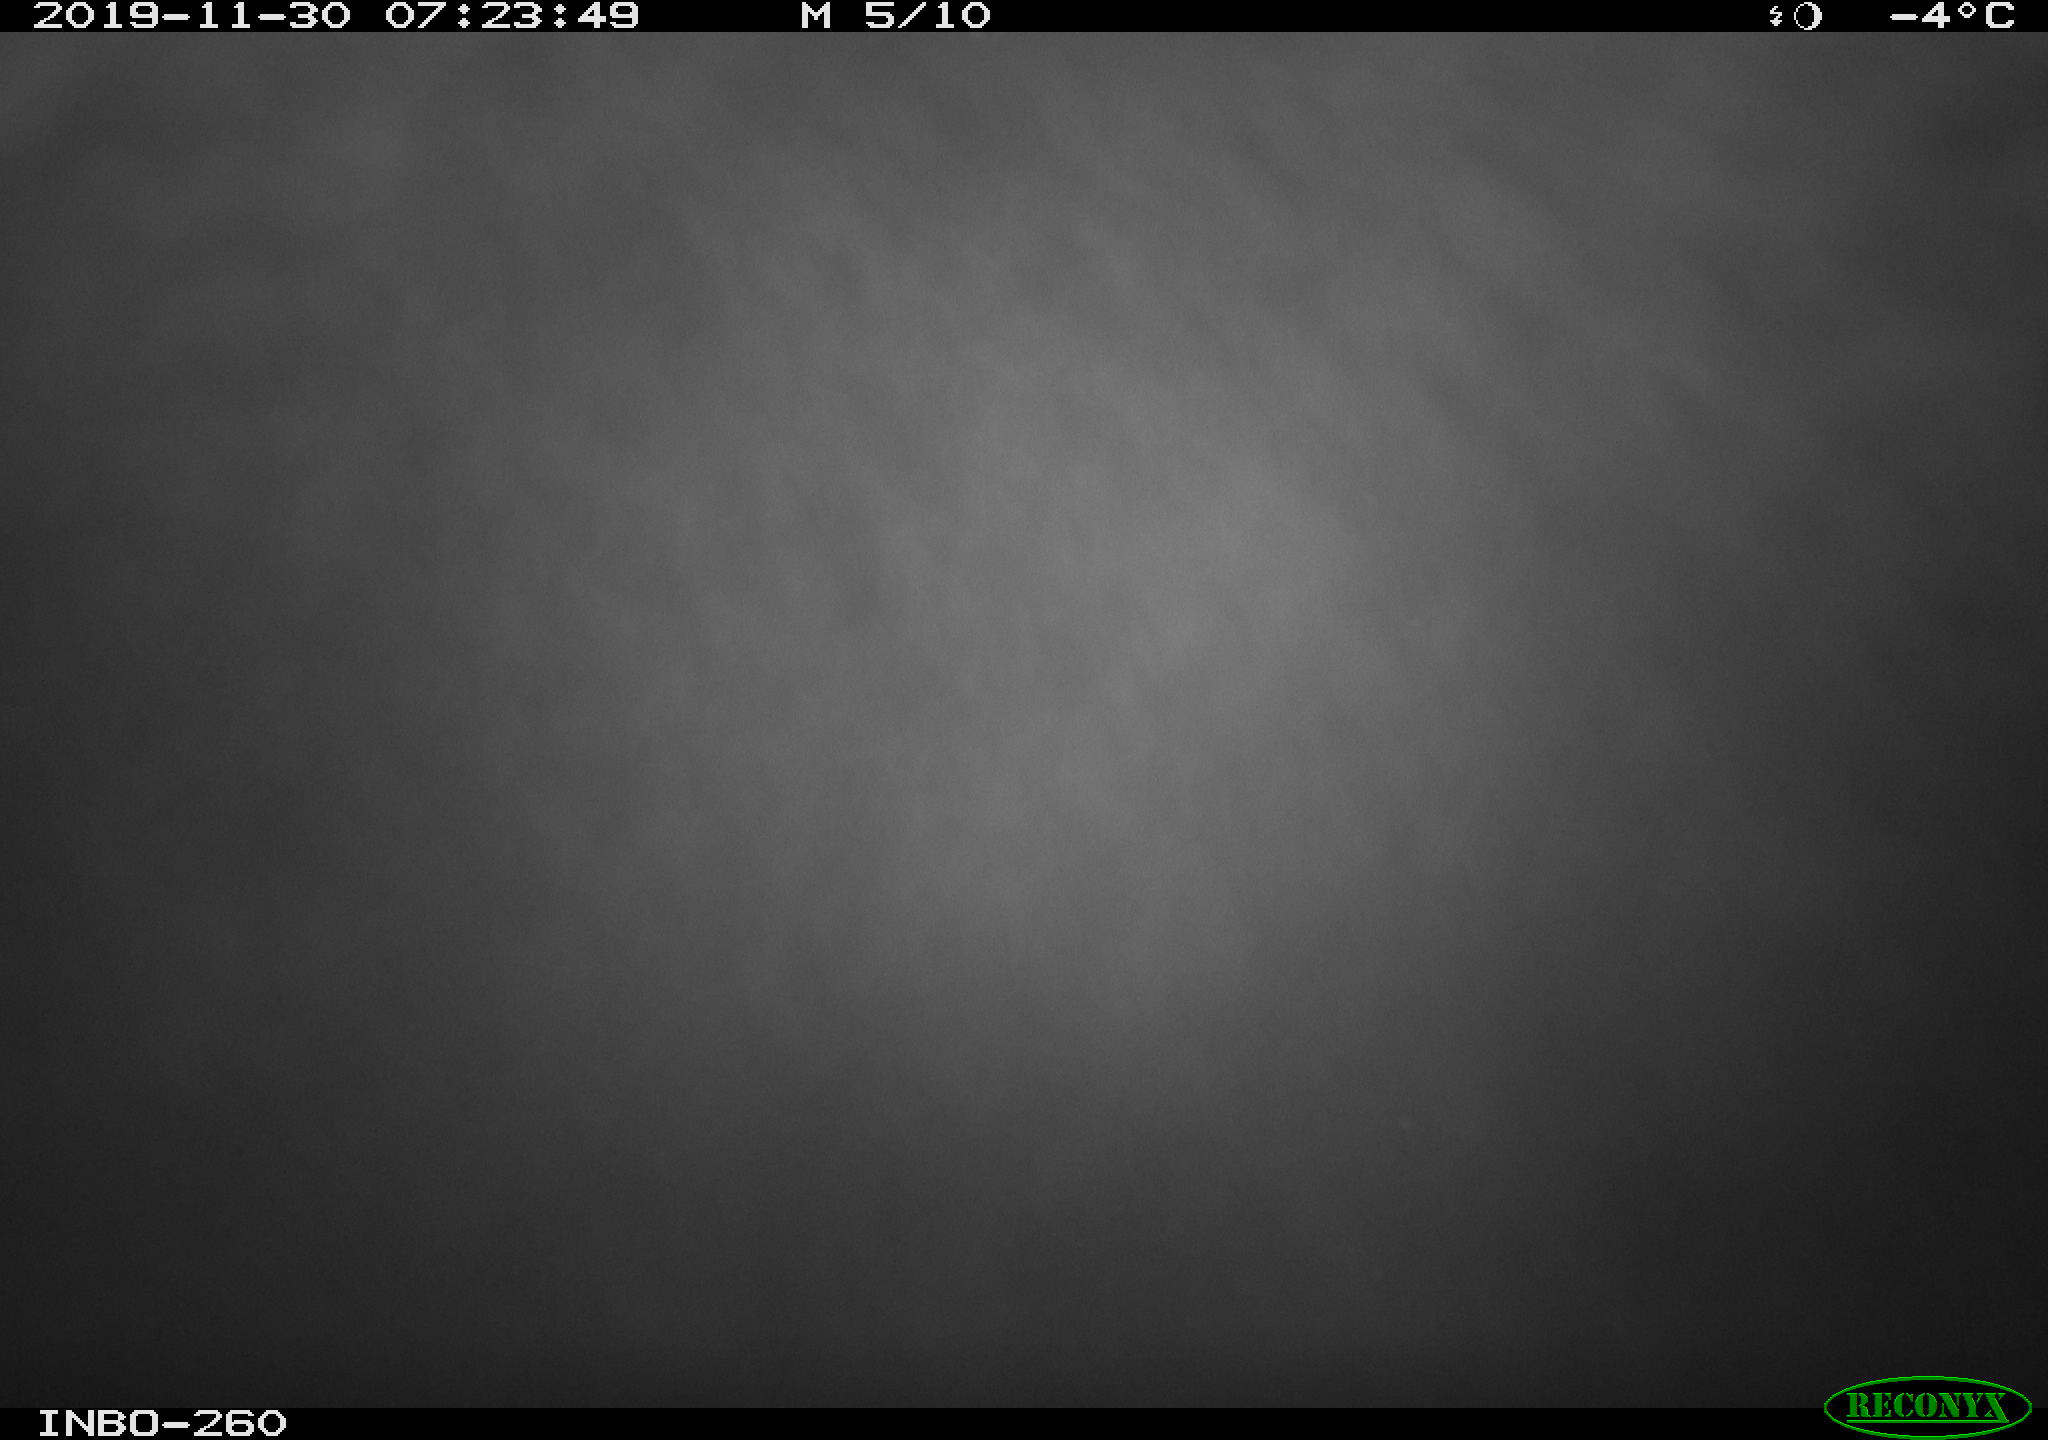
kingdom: Animalia
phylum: Chordata
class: Aves
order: Anseriformes
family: Anatidae
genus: Anas
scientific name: Anas platyrhynchos
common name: Mallard
